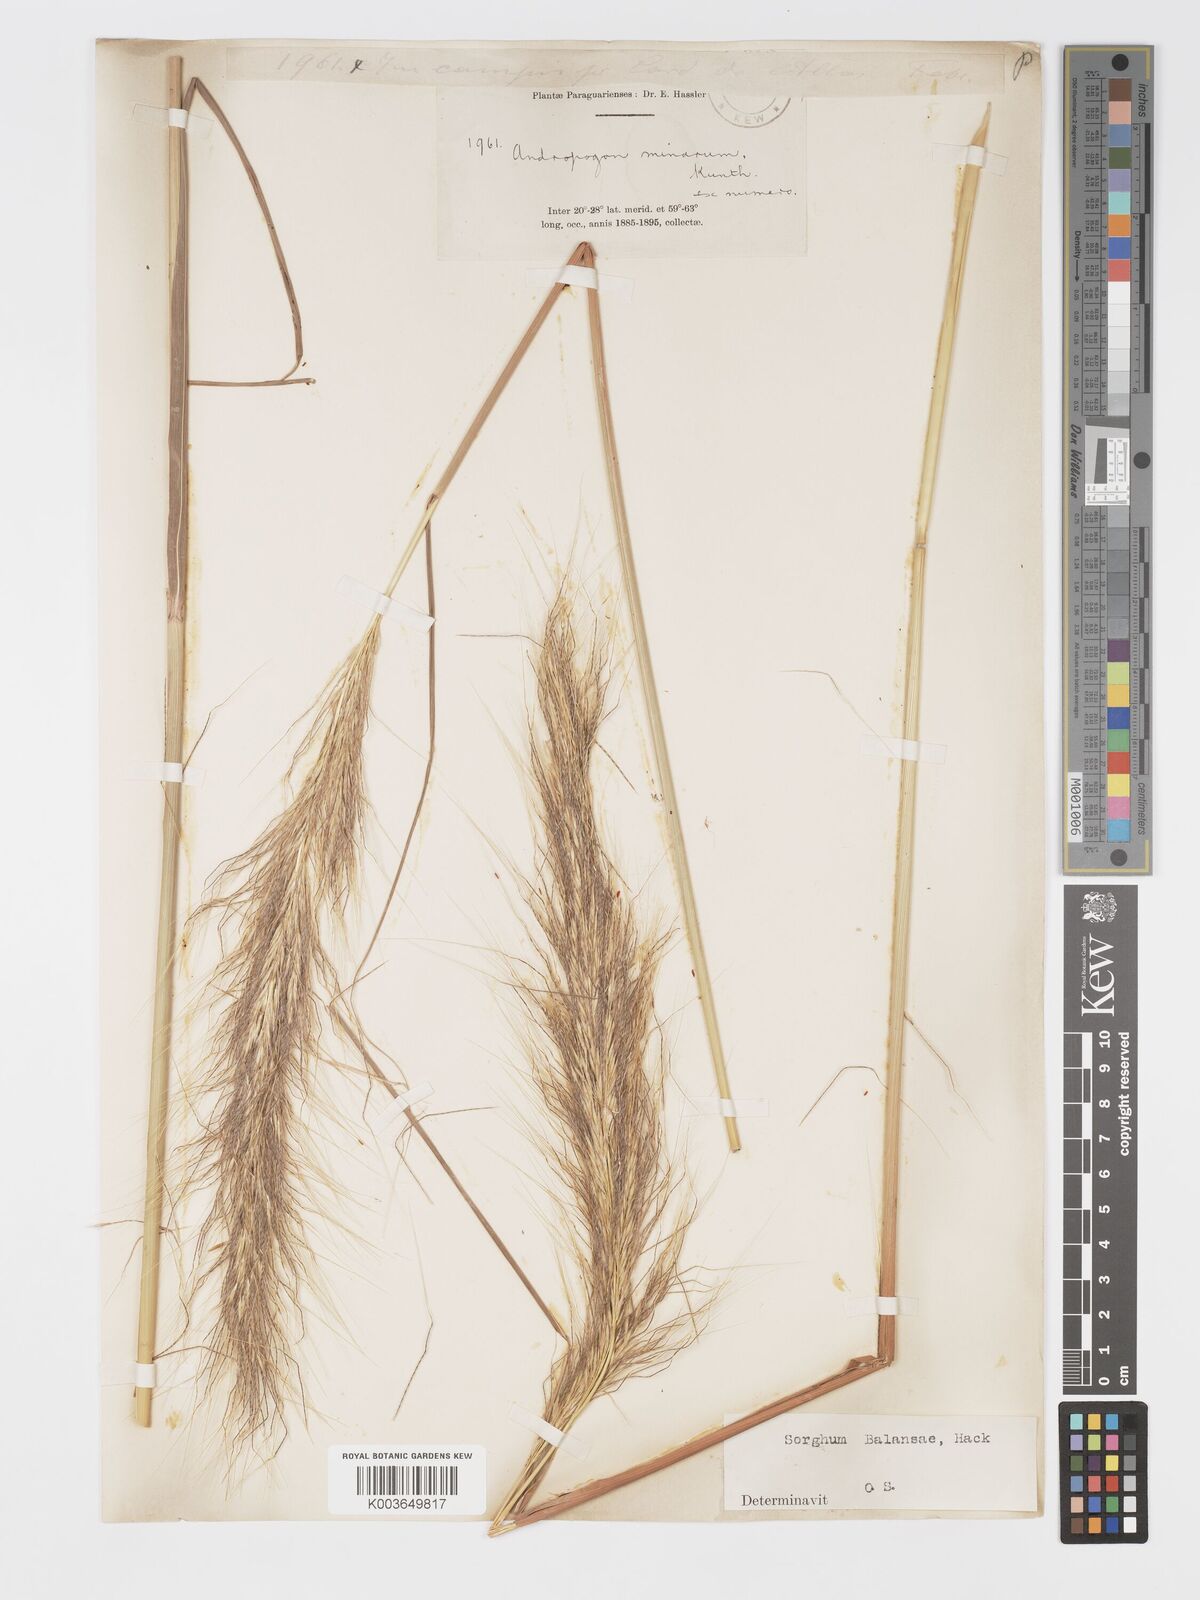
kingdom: Plantae
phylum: Tracheophyta
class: Liliopsida
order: Poales
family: Poaceae
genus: Sorghastrum
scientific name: Sorghastrum balansae
